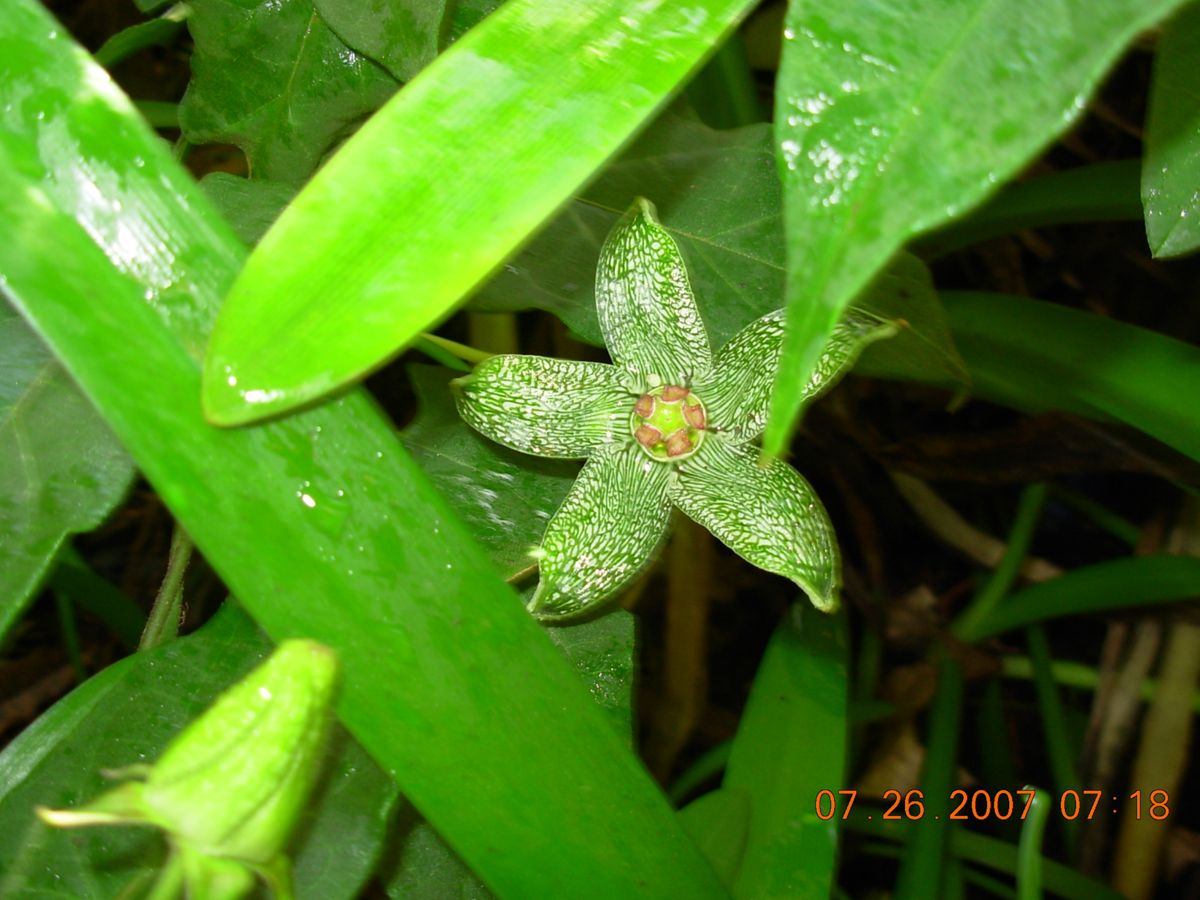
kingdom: Plantae
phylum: Tracheophyta
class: Magnoliopsida
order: Gentianales
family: Apocynaceae
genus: Gonolobus
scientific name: Gonolobus incerianus
